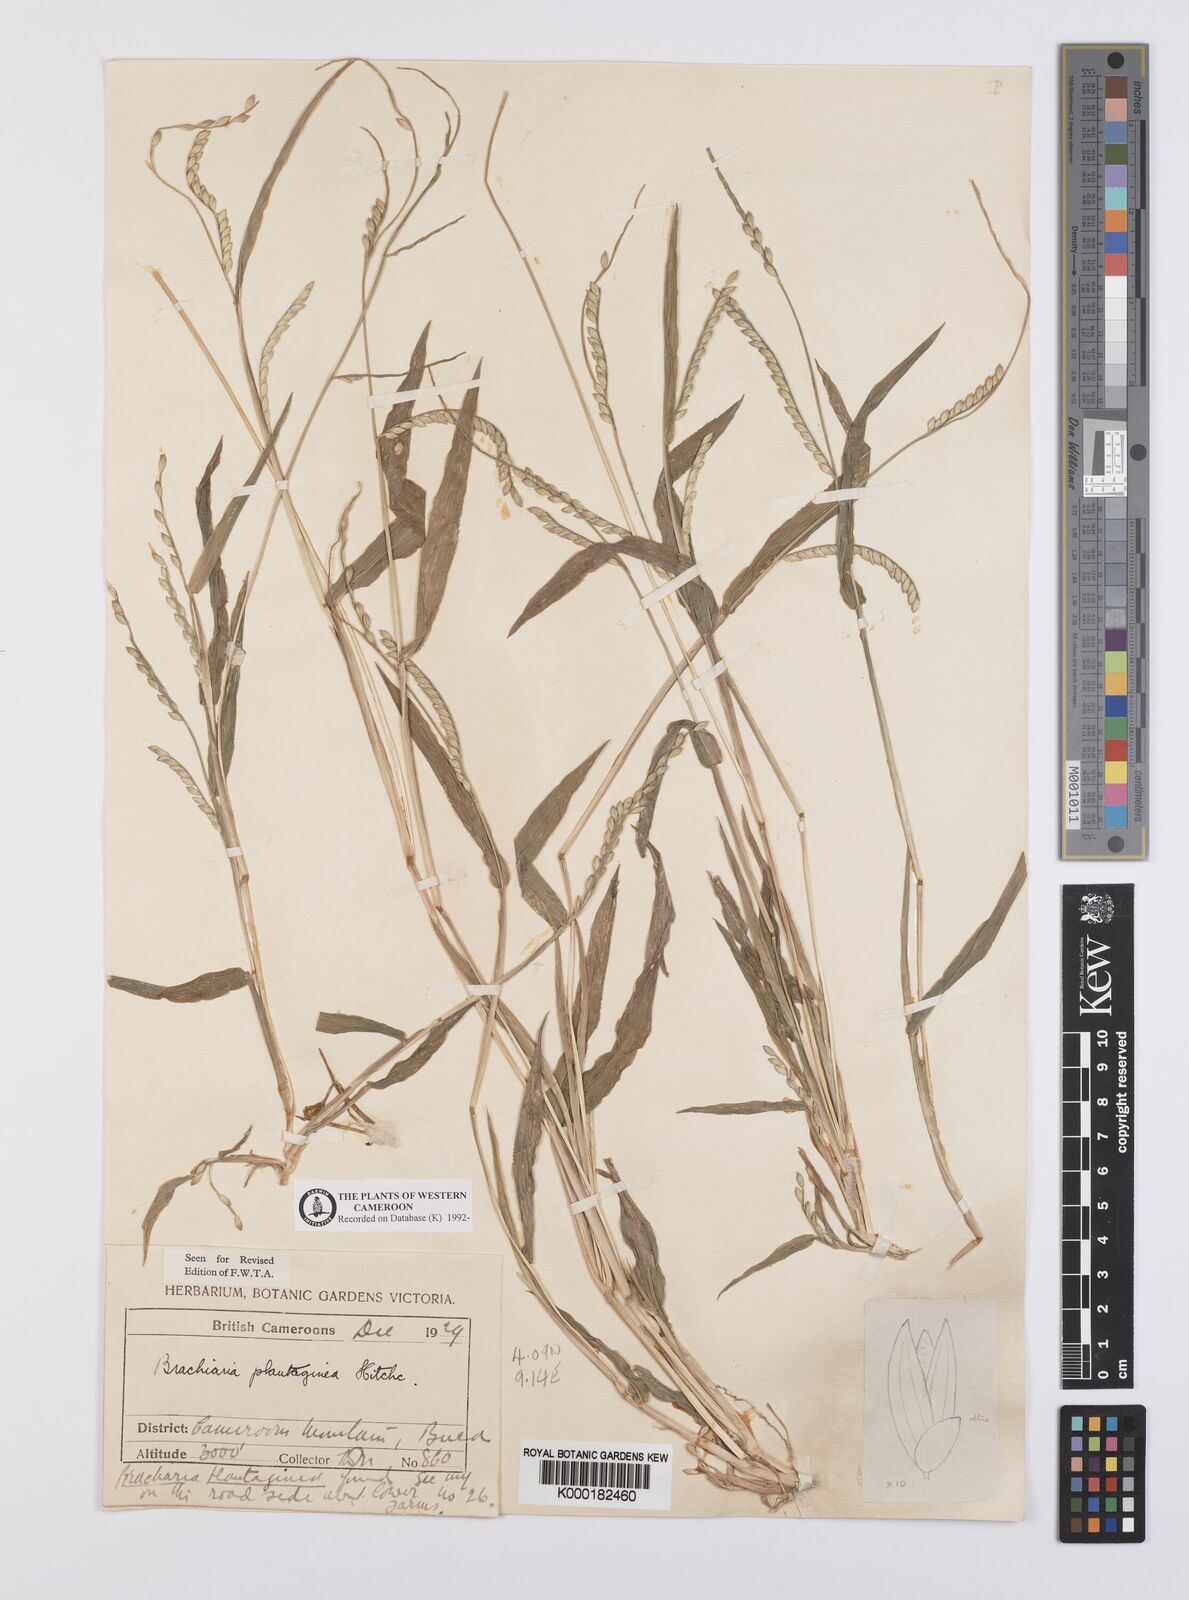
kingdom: Plantae
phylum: Tracheophyta
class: Liliopsida
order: Poales
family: Poaceae
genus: Urochloa
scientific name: Urochloa plantaginea
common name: Plantain signalgrass
